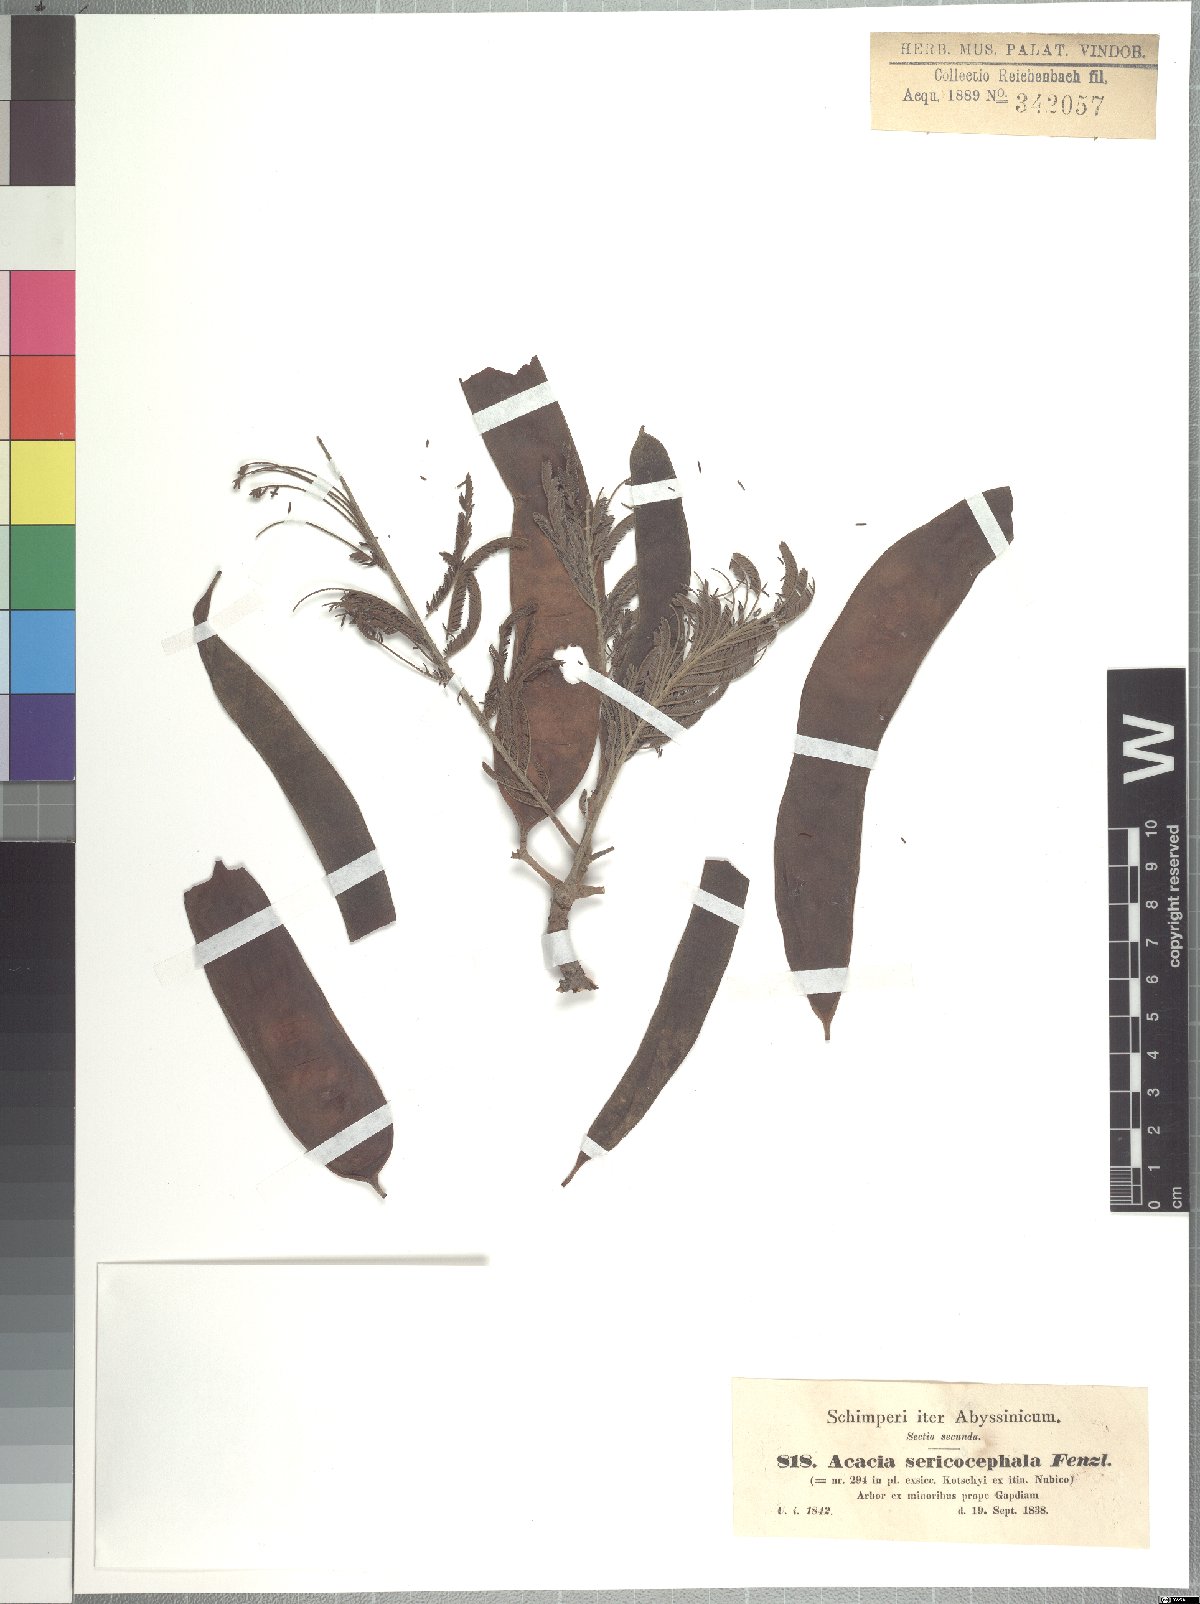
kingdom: Plantae
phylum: Tracheophyta
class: Magnoliopsida
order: Fabales
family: Fabaceae
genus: Albizia
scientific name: Albizia amara
